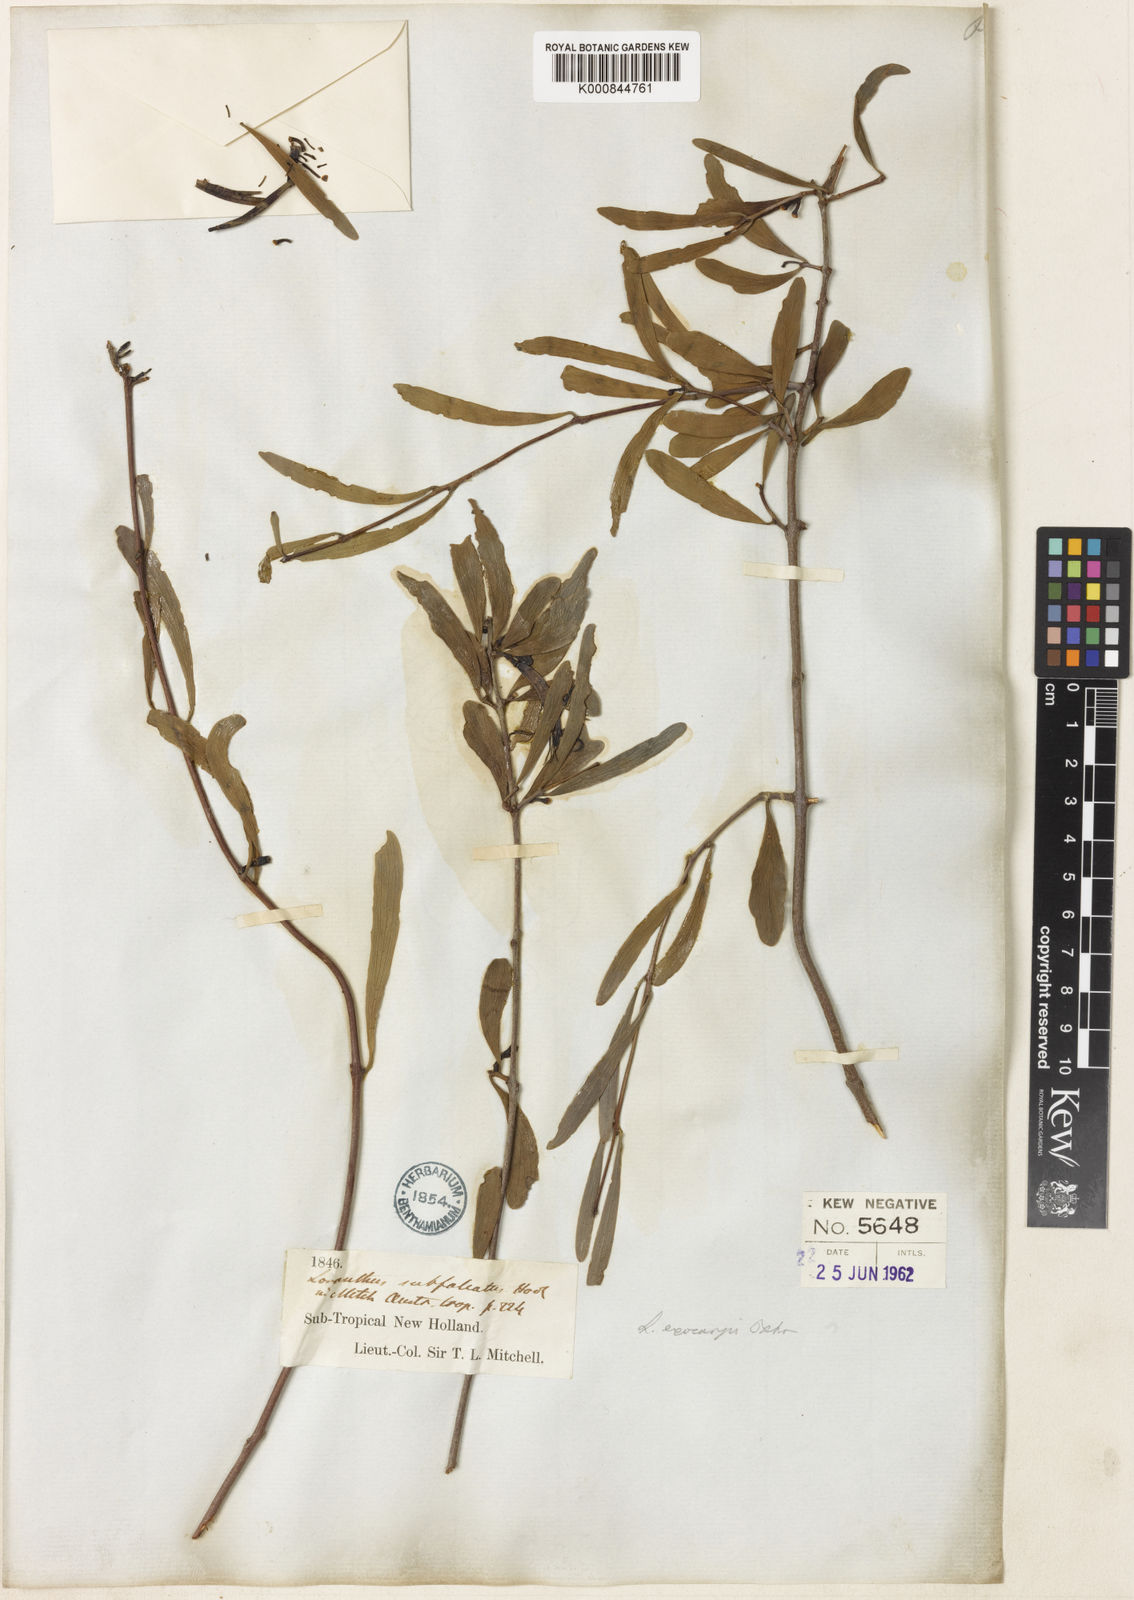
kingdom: Plantae
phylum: Tracheophyta
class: Magnoliopsida
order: Santalales
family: Loranthaceae
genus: Lysiana
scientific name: Lysiana exocarpi
